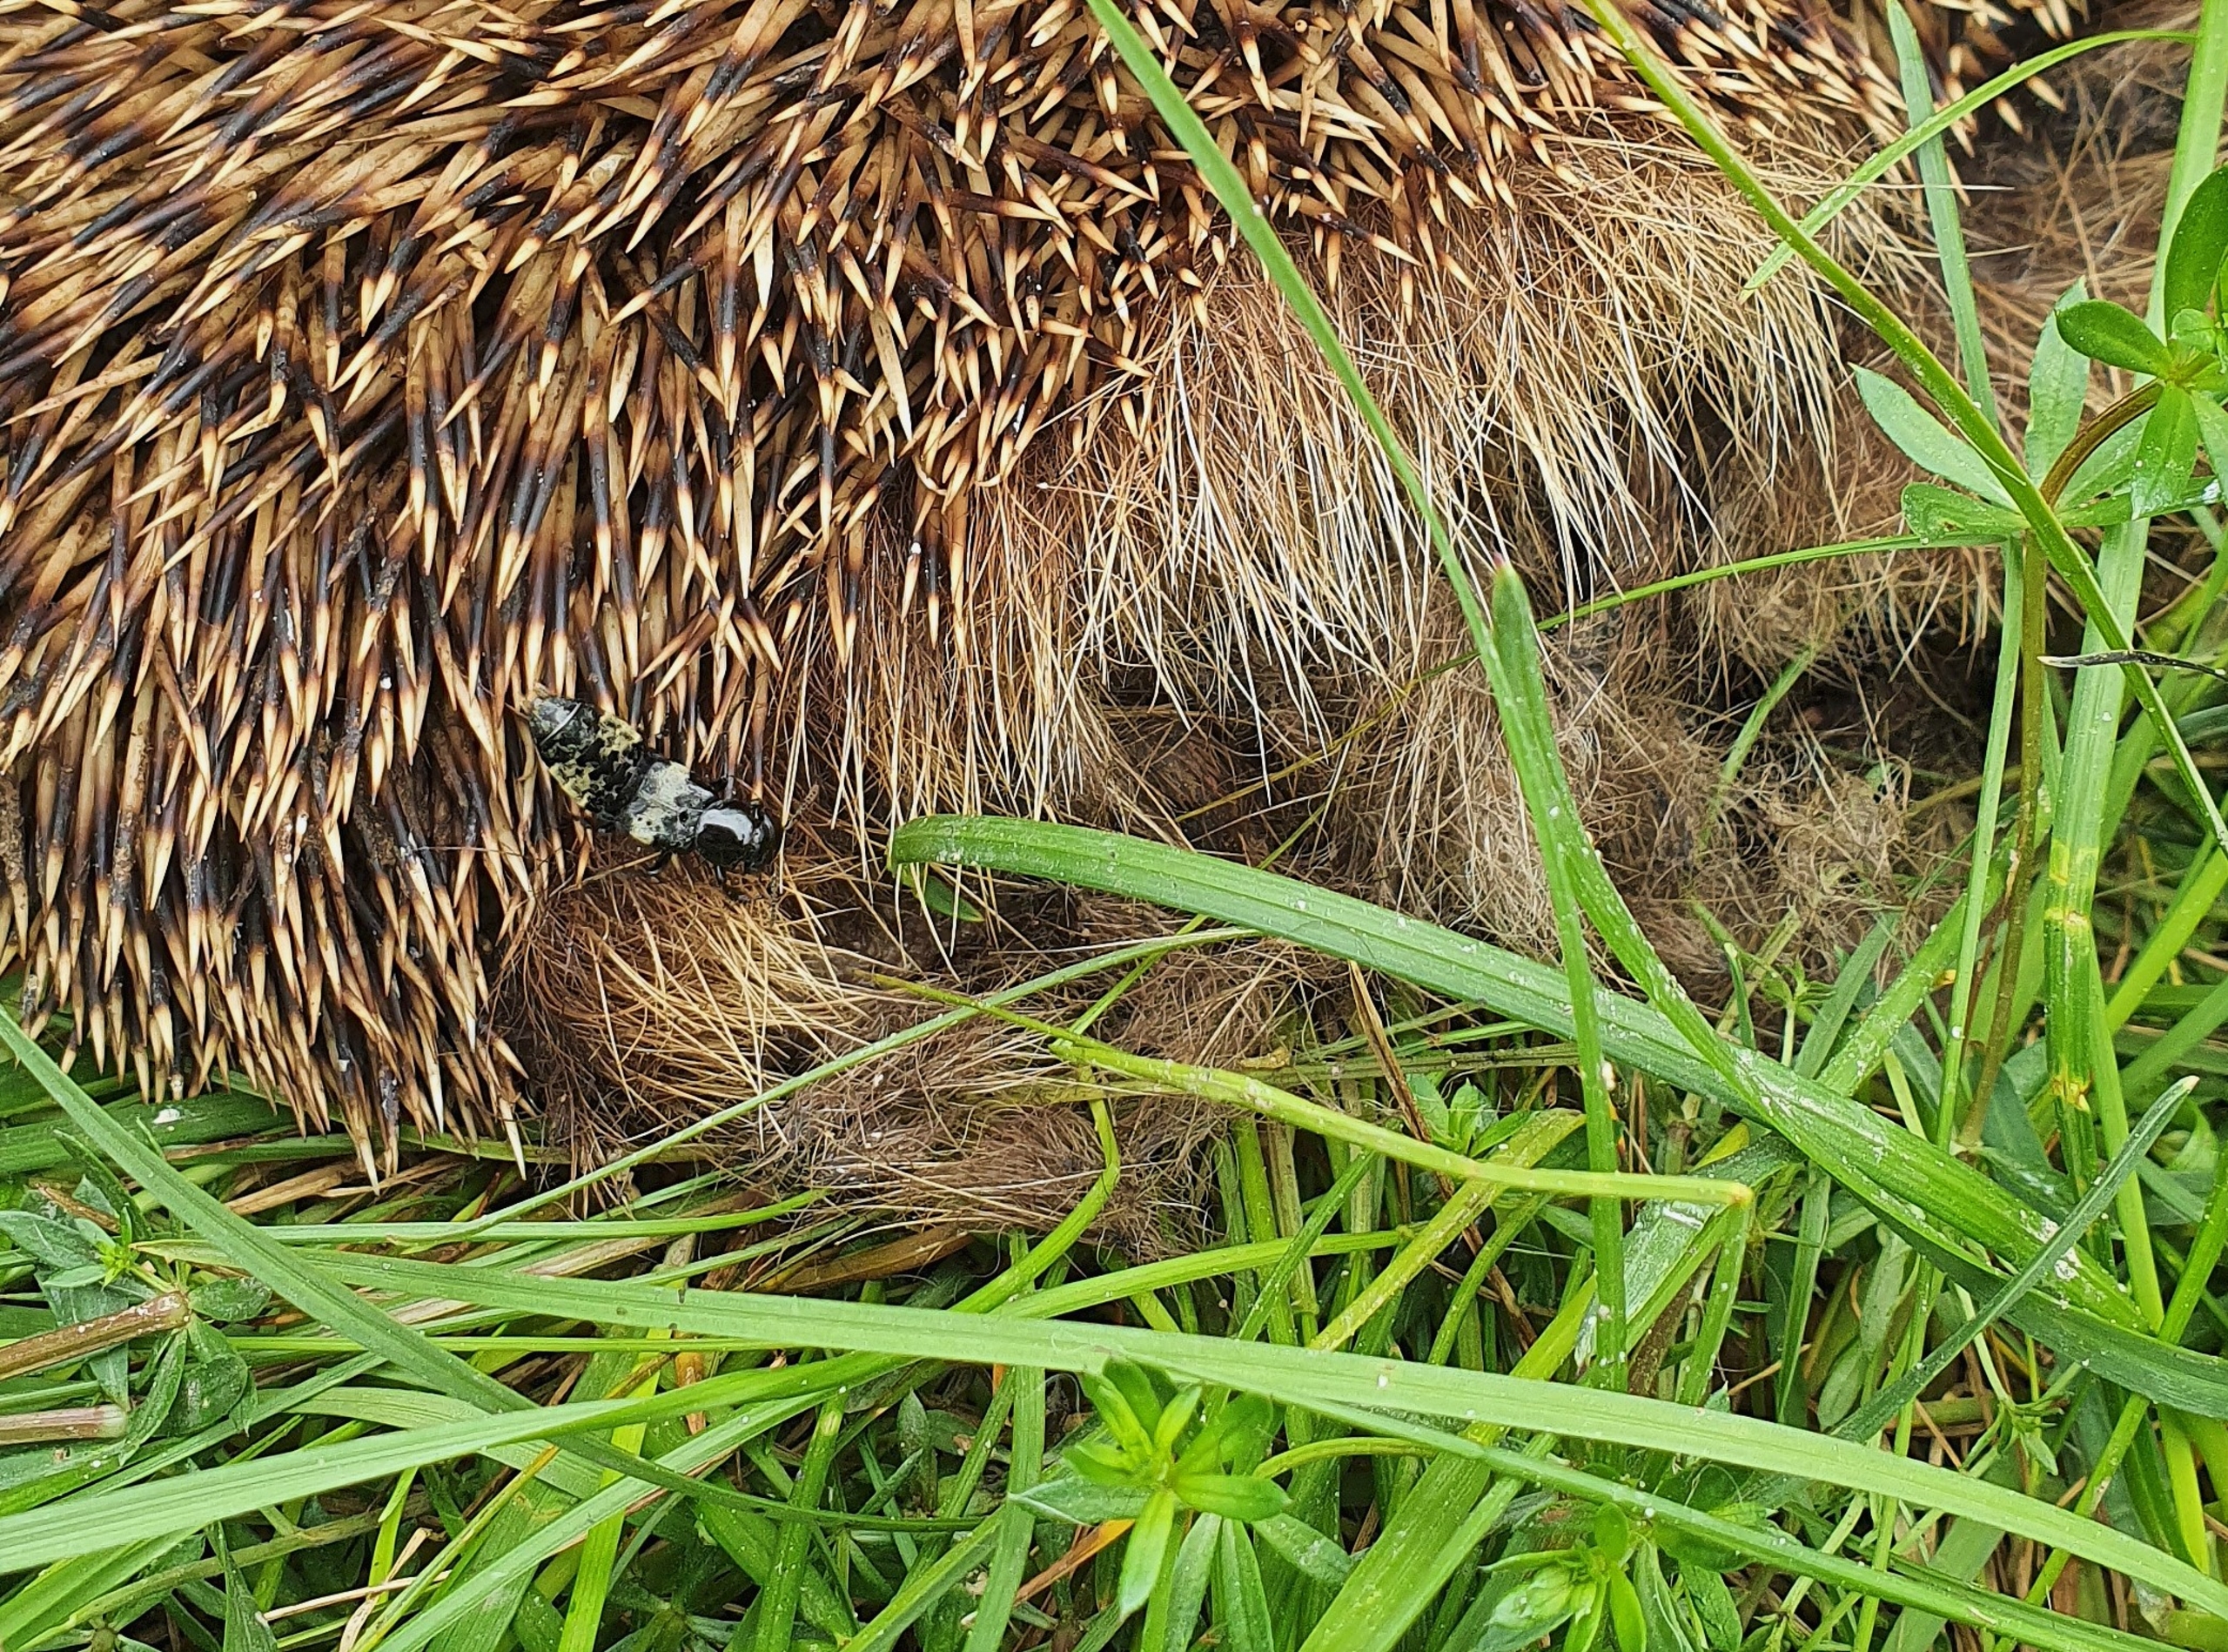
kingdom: Animalia
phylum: Arthropoda
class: Insecta
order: Coleoptera
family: Staphylinidae
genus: Creophilus
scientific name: Creophilus maxillosus
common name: Skrækrovbille
